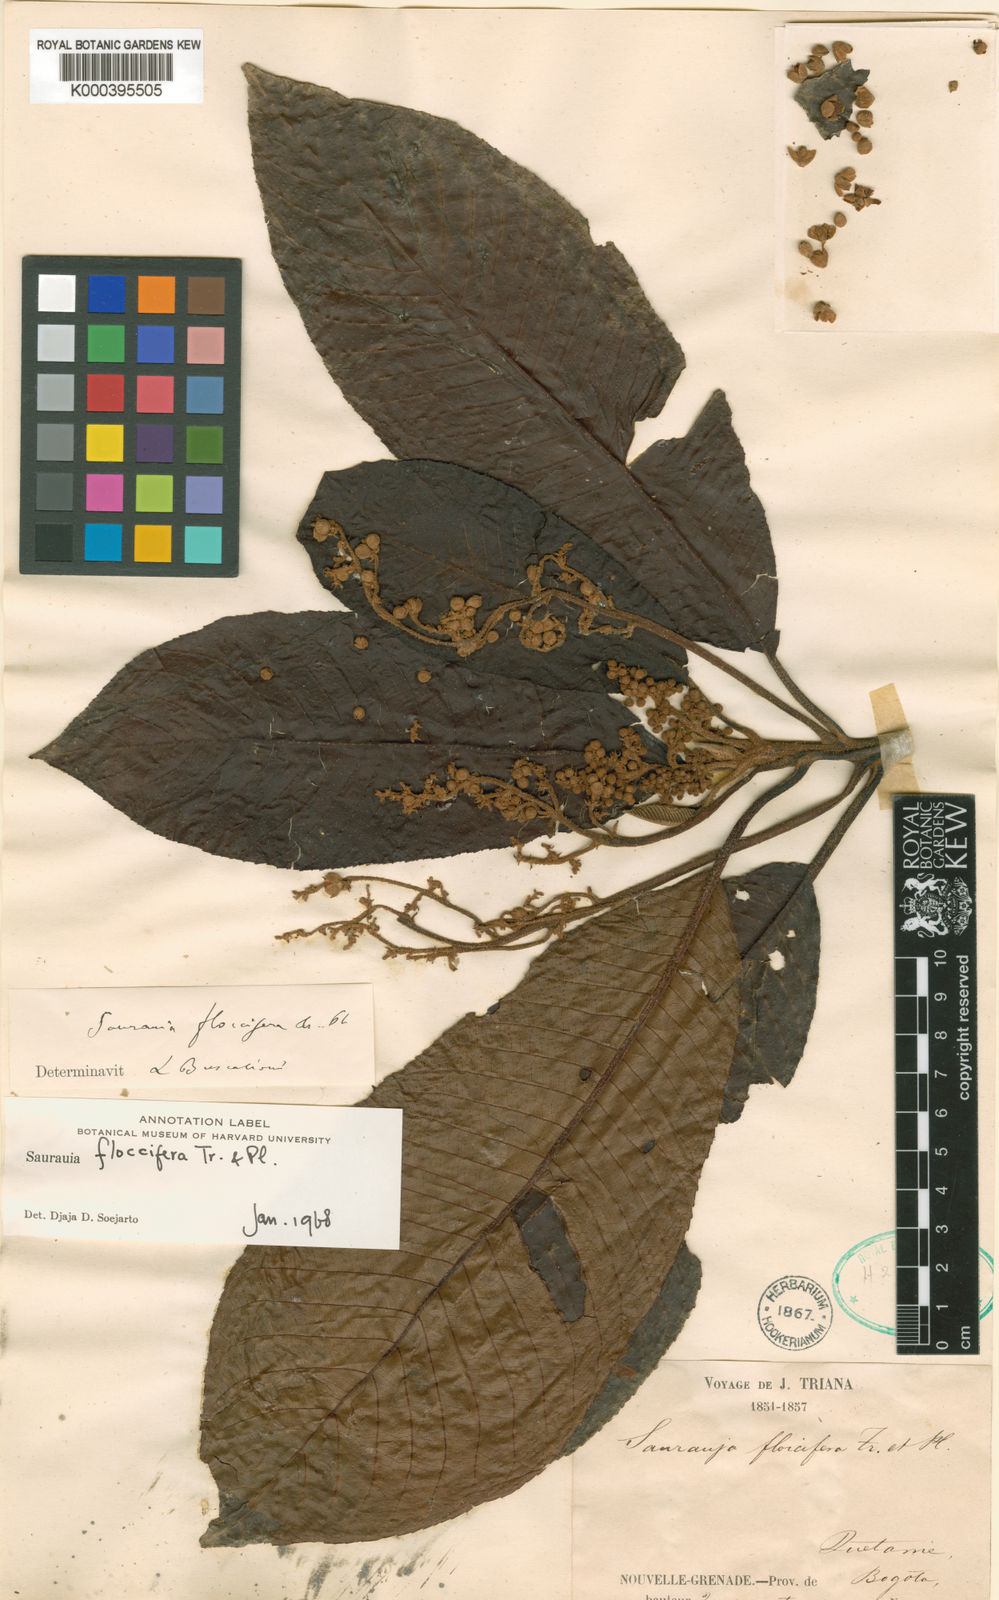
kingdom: Plantae
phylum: Tracheophyta
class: Magnoliopsida
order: Ericales
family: Actinidiaceae
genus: Saurauia
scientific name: Saurauia floccifera
